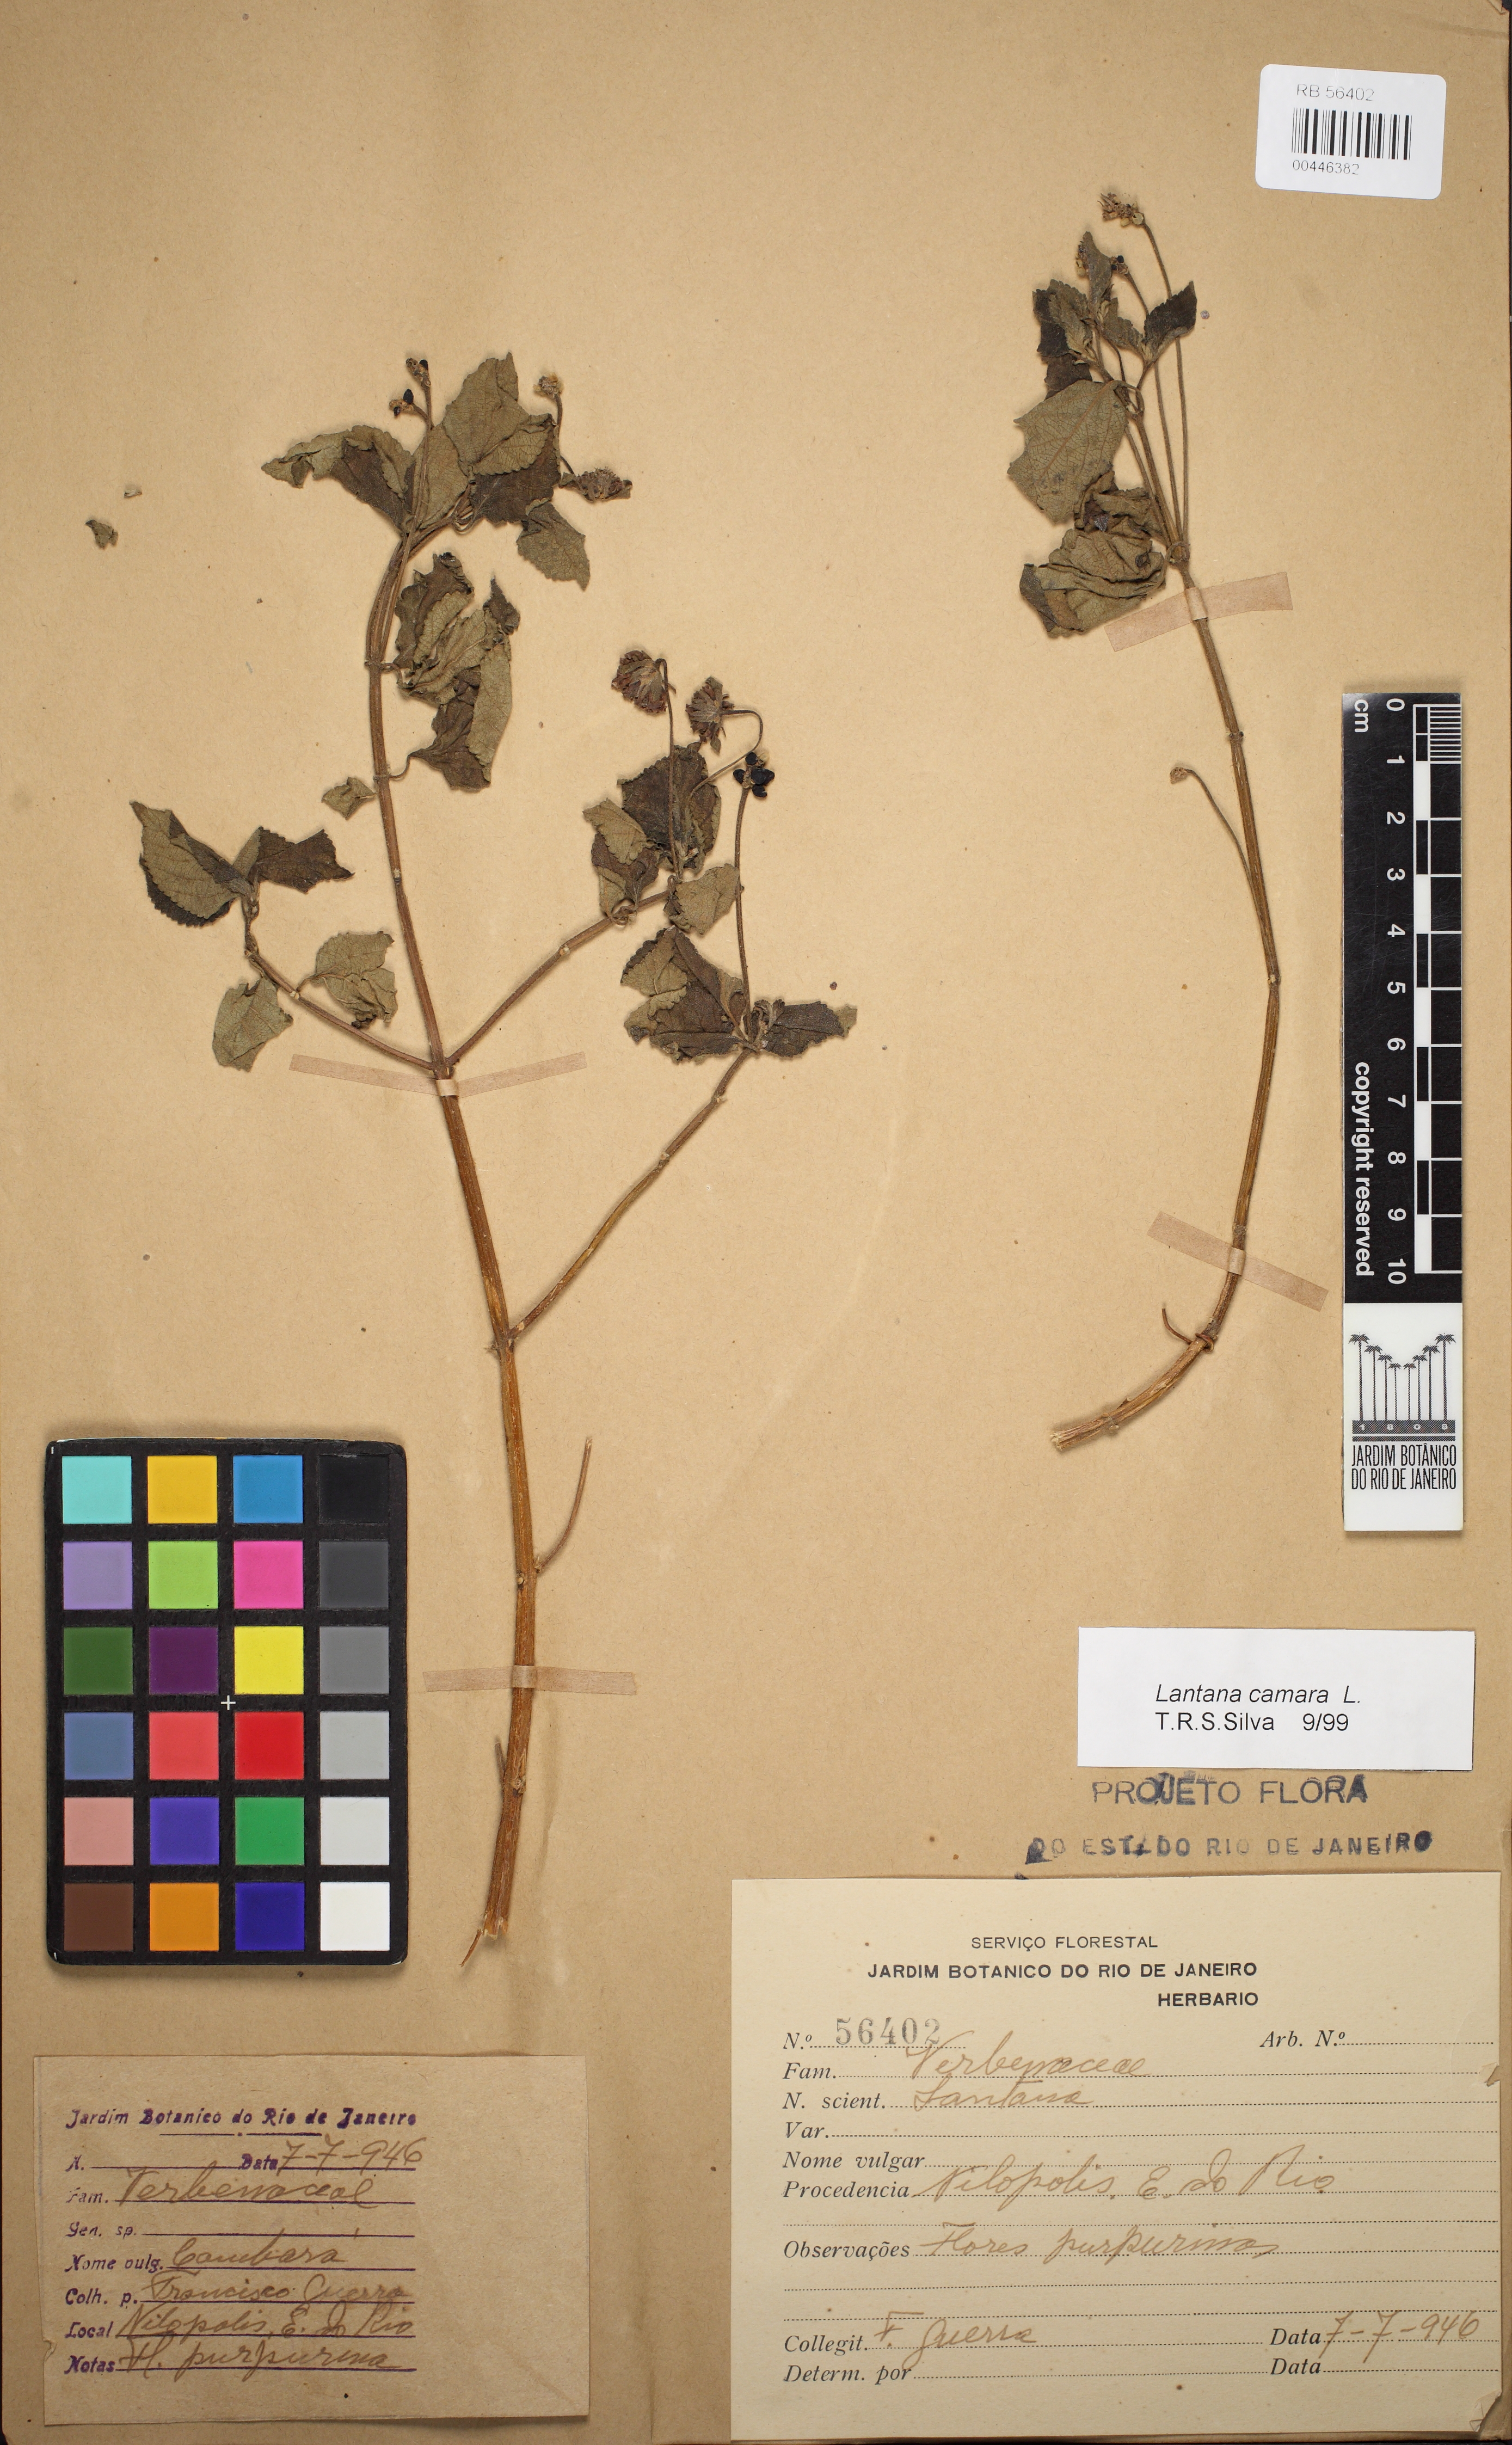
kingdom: Plantae
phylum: Tracheophyta
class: Magnoliopsida
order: Lamiales
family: Verbenaceae
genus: Lantana
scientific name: Lantana camara
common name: Lantana
